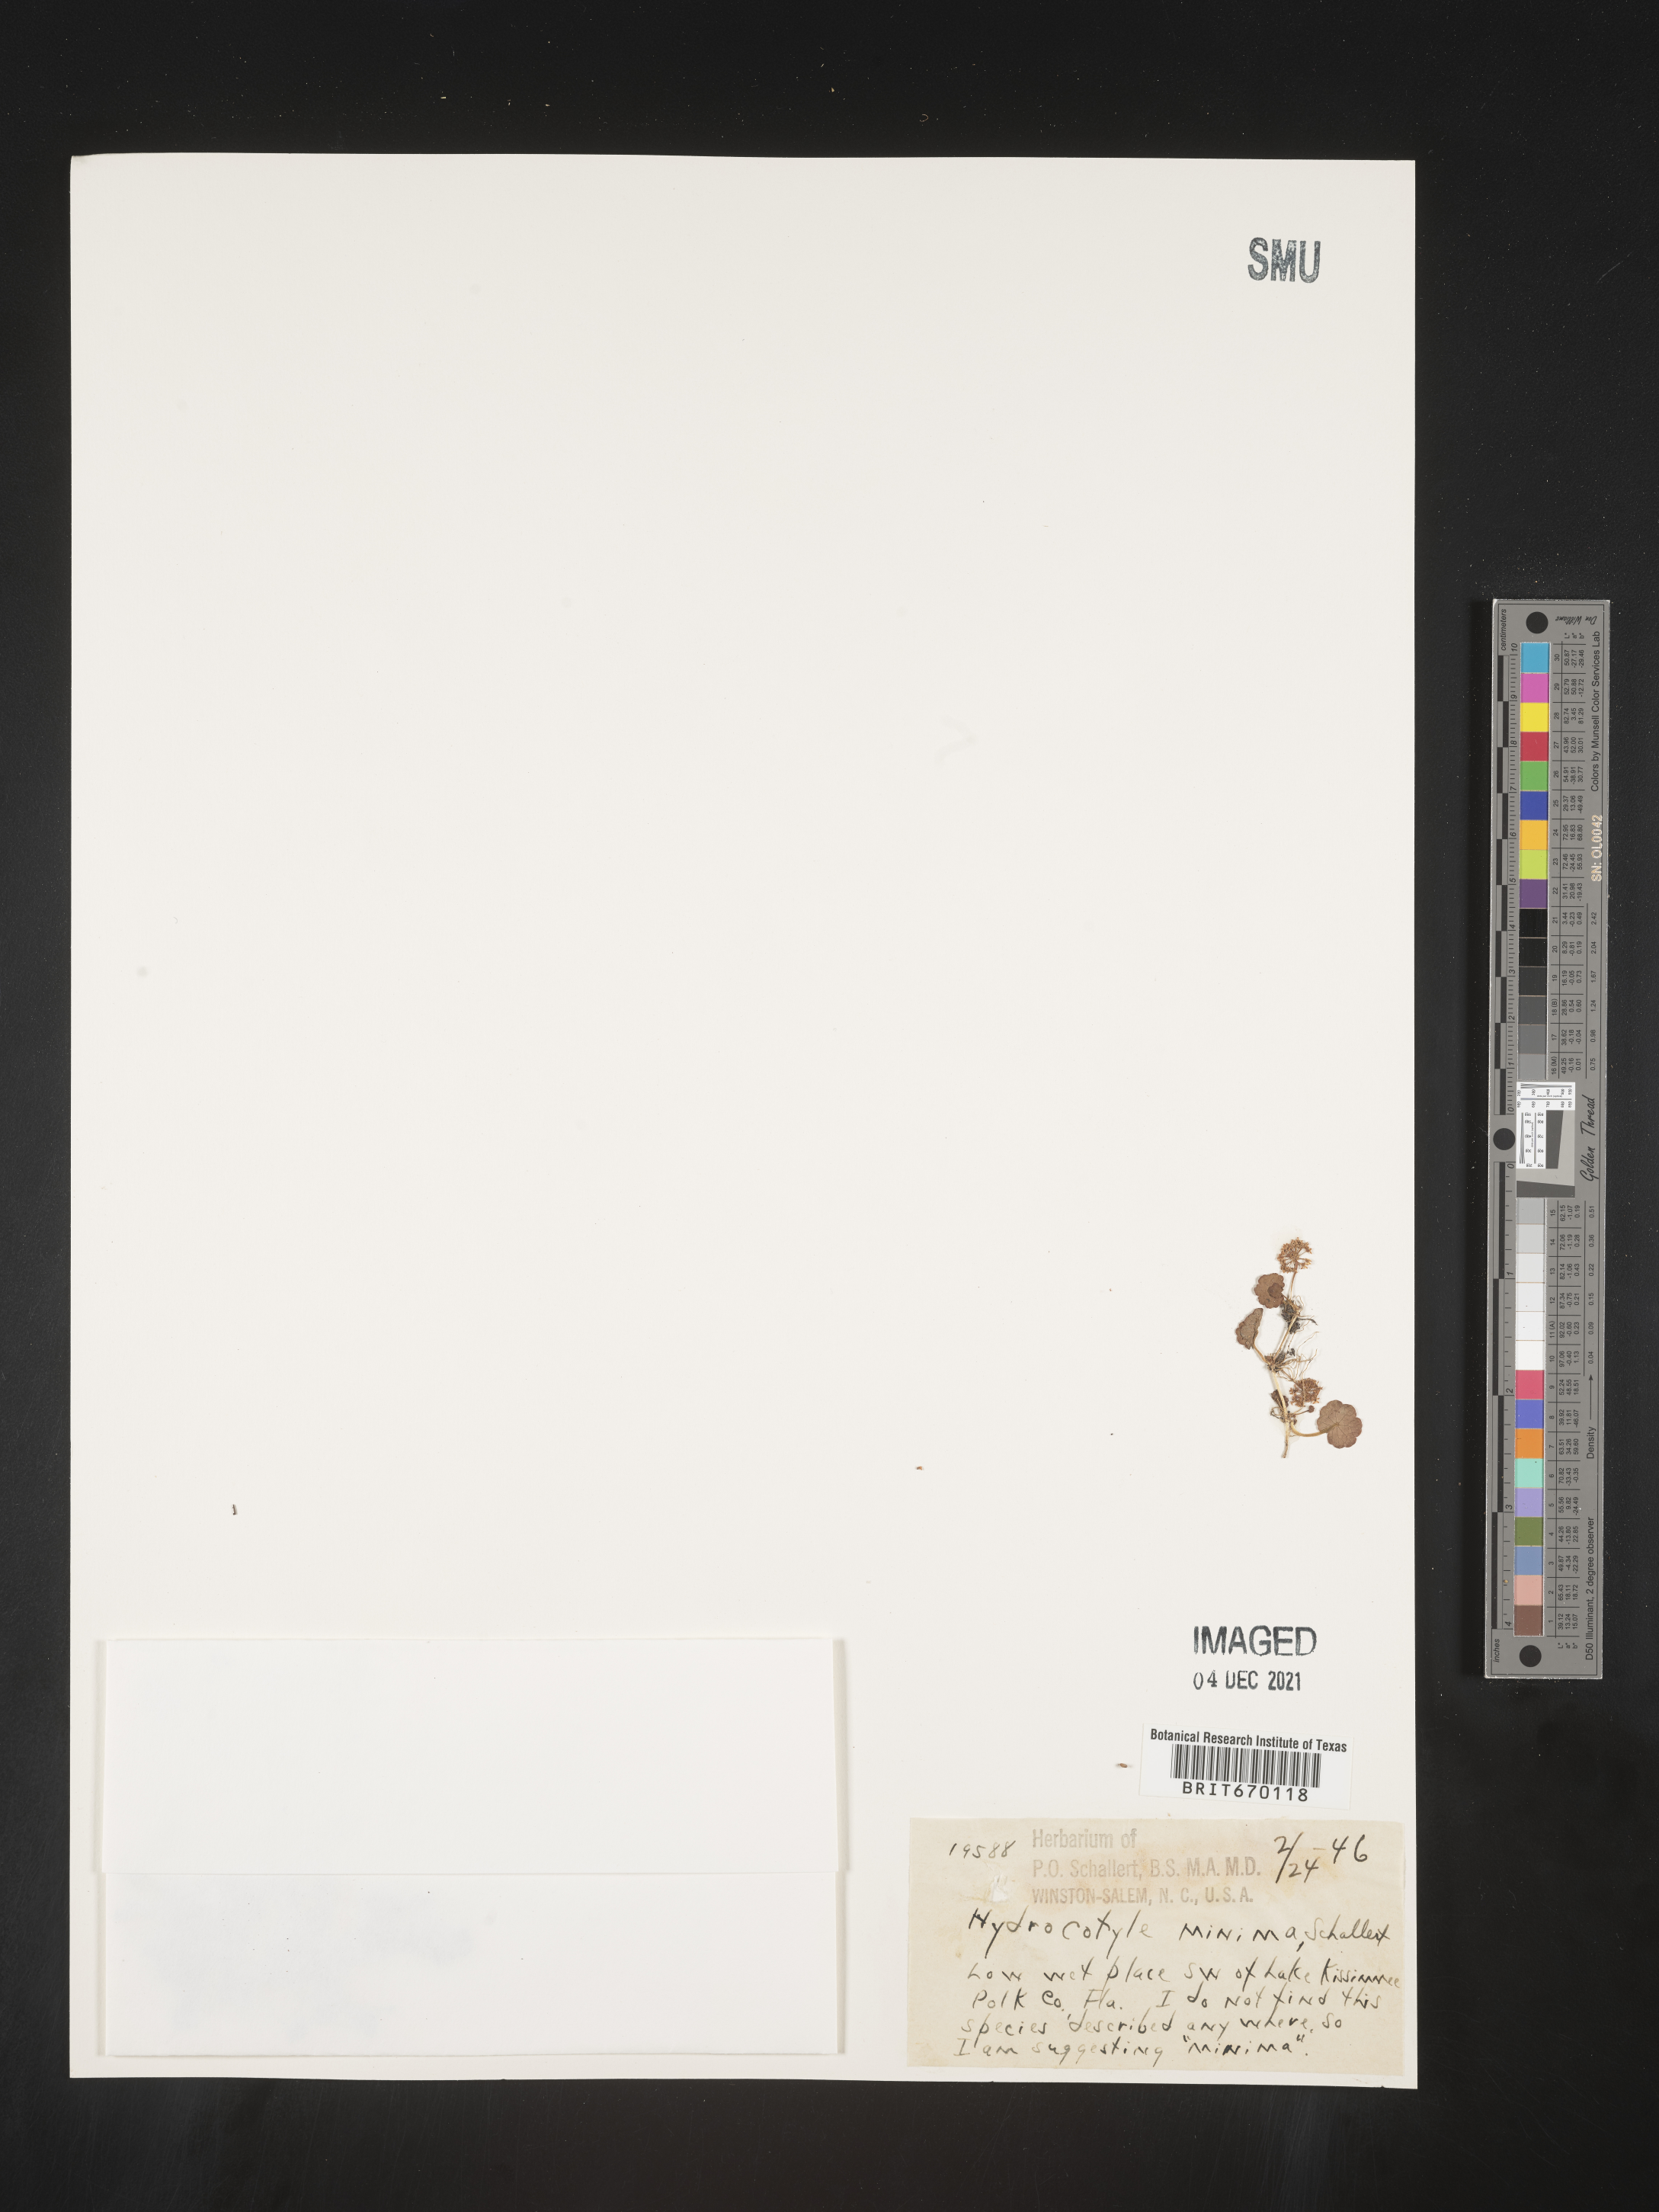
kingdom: Plantae
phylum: Tracheophyta
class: Magnoliopsida
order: Apiales
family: Araliaceae
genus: Hydrocotyle
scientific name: Hydrocotyle sibthorpioides
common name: Lawn marshpennywort
